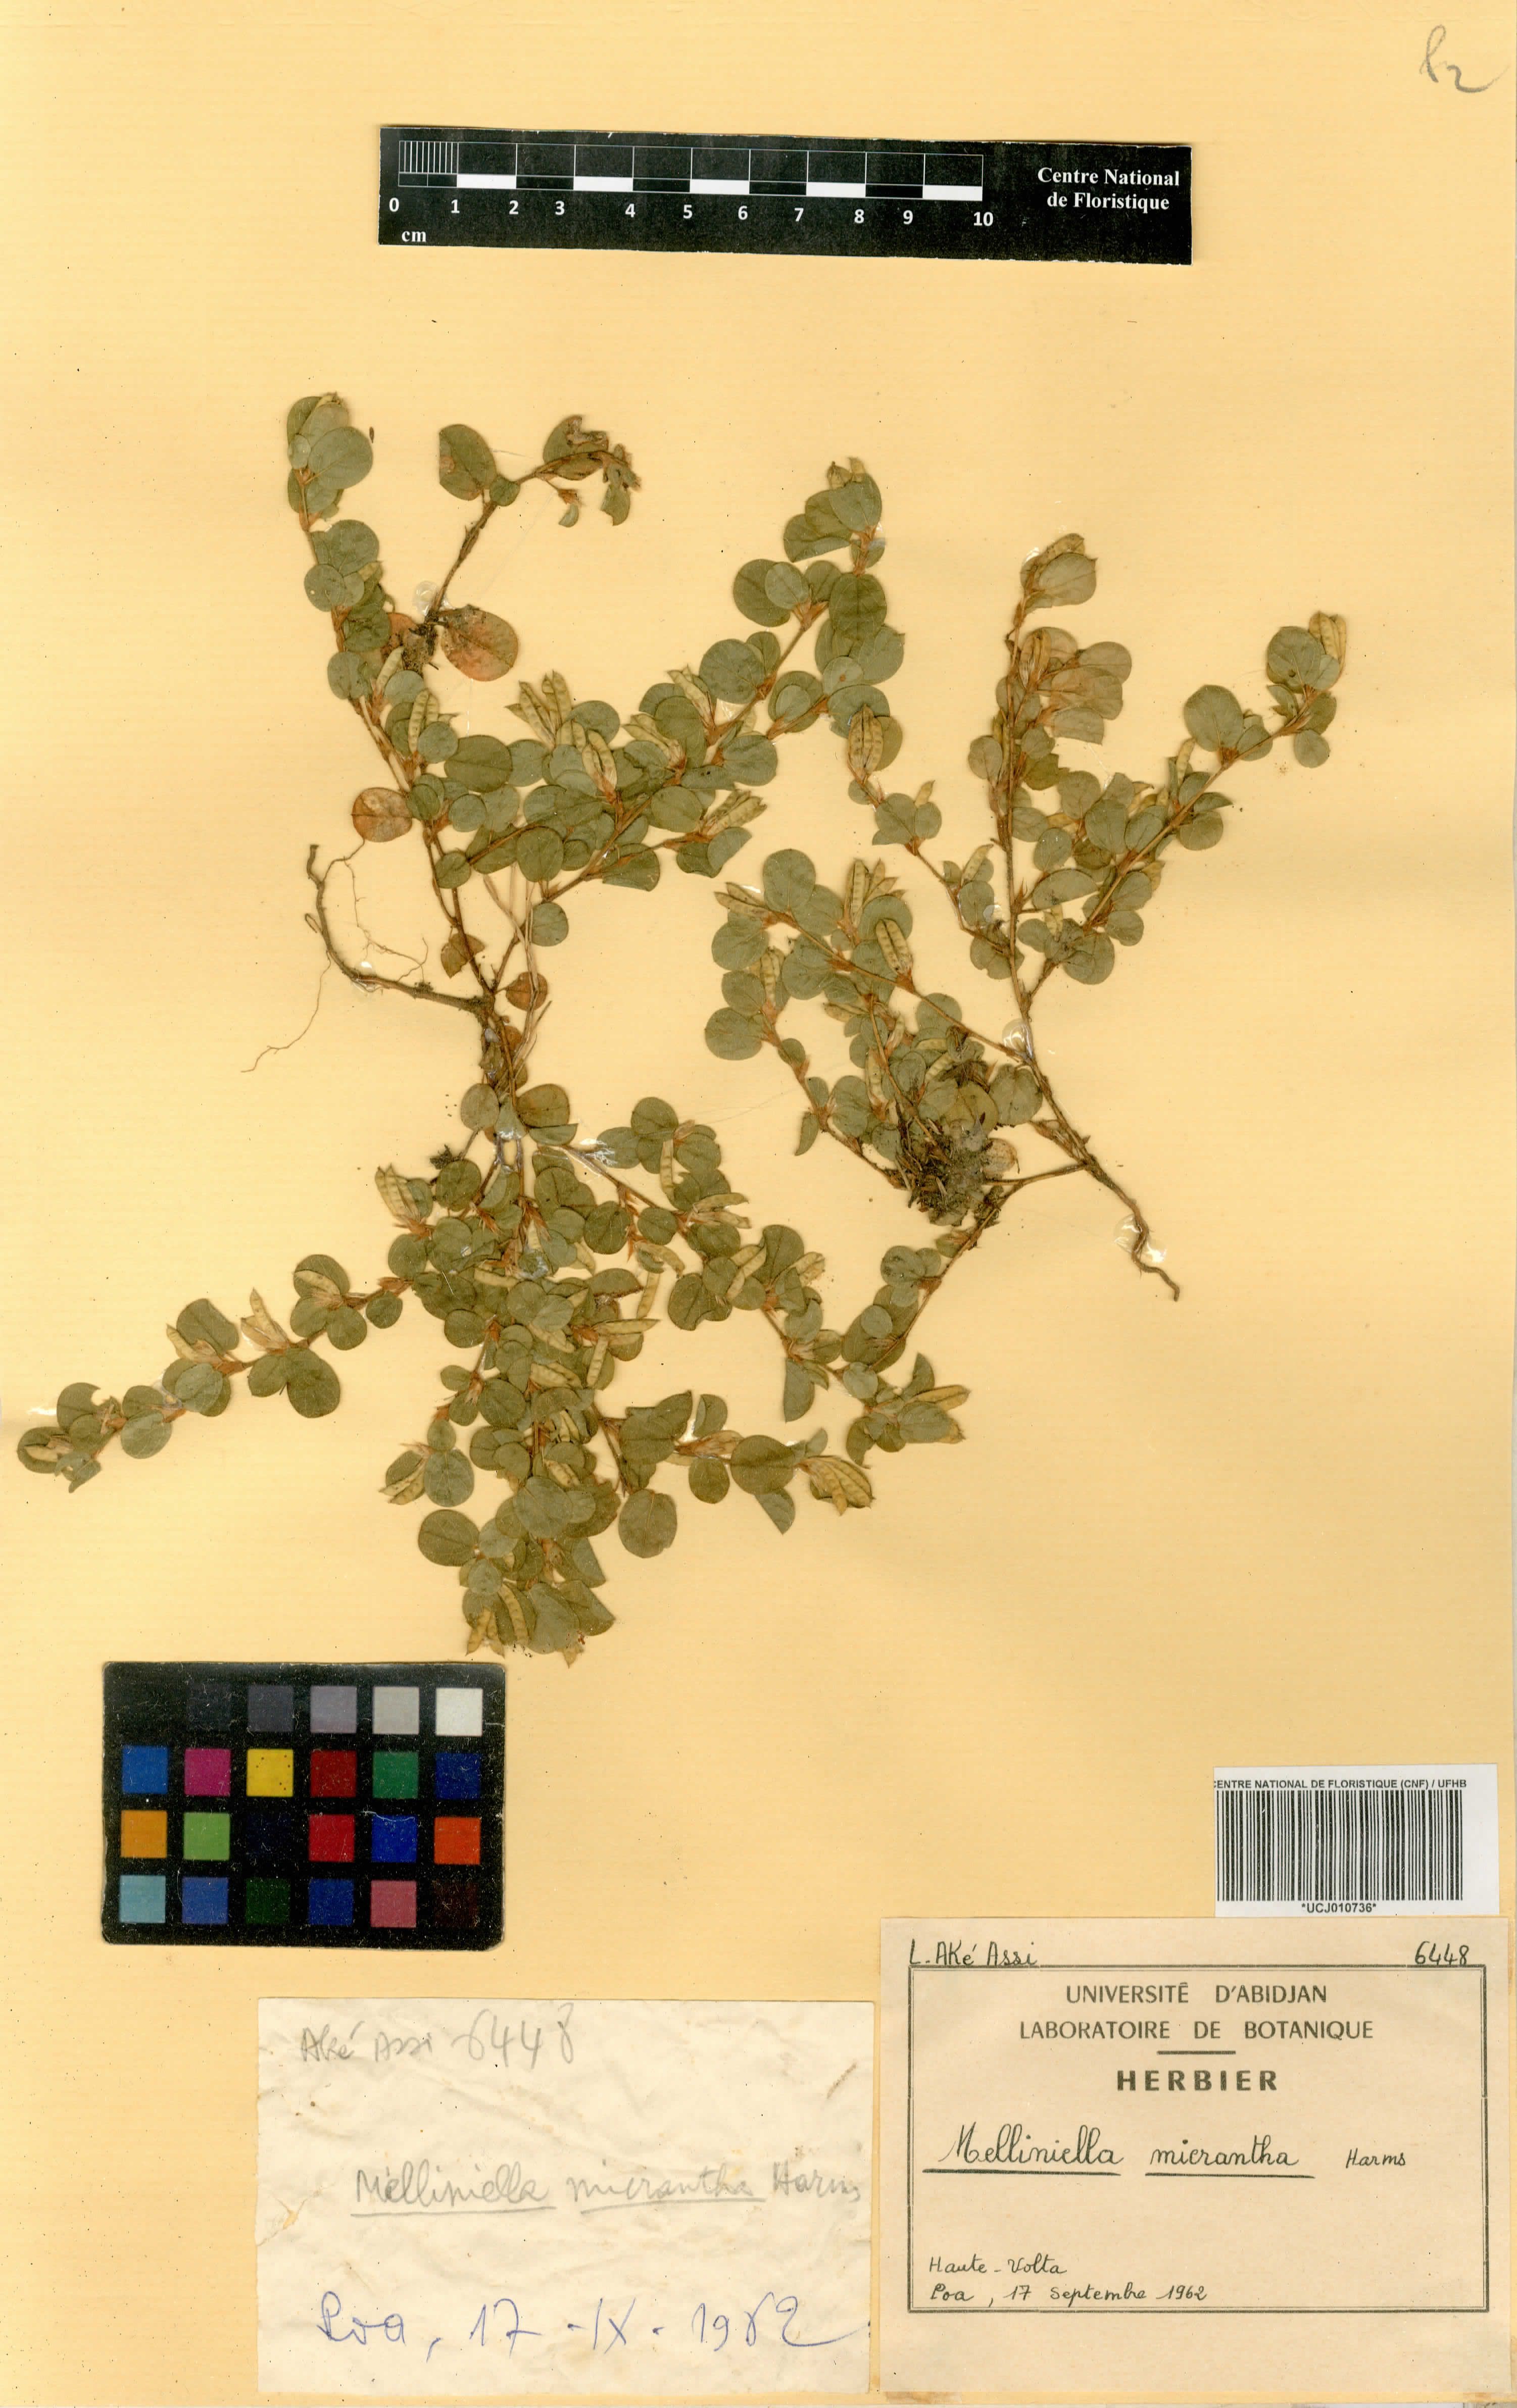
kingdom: Plantae
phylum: Tracheophyta
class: Magnoliopsida
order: Fabales
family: Fabaceae
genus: Melliniella
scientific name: Melliniella micrantha
